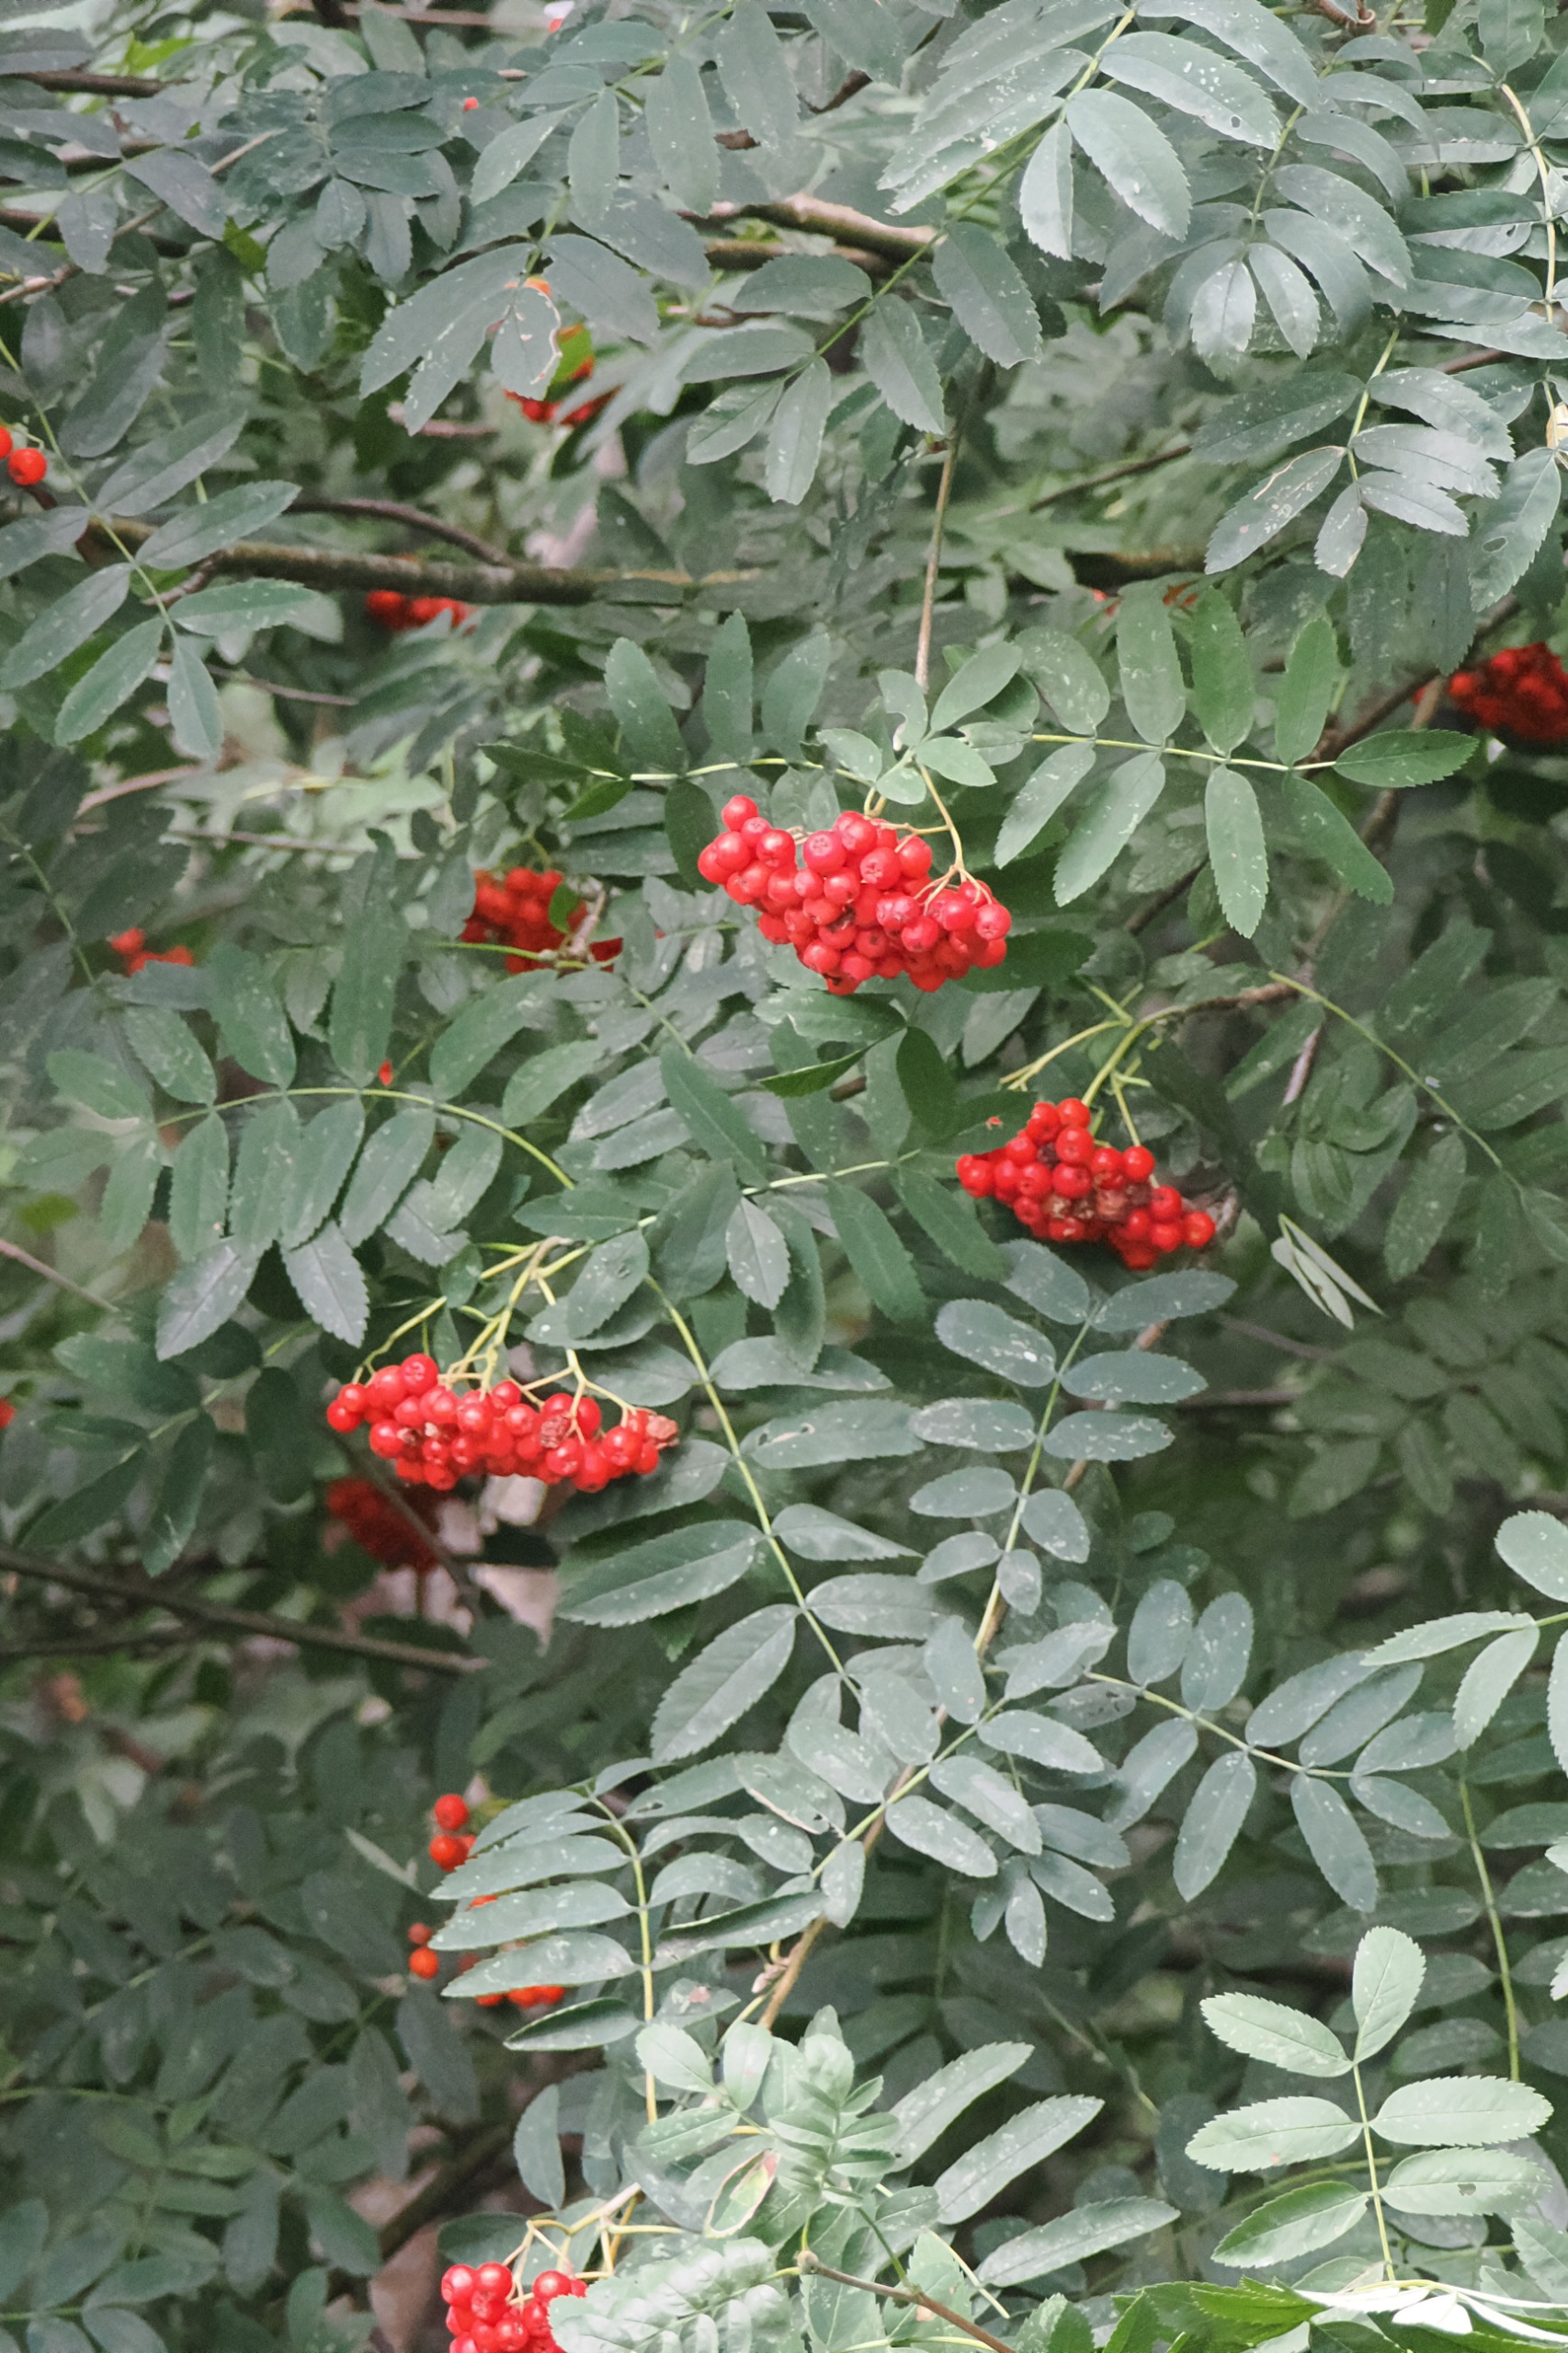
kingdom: Plantae
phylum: Tracheophyta
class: Magnoliopsida
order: Rosales
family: Rosaceae
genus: Sorbus
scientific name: Sorbus aucuparia
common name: Almindelig røn
